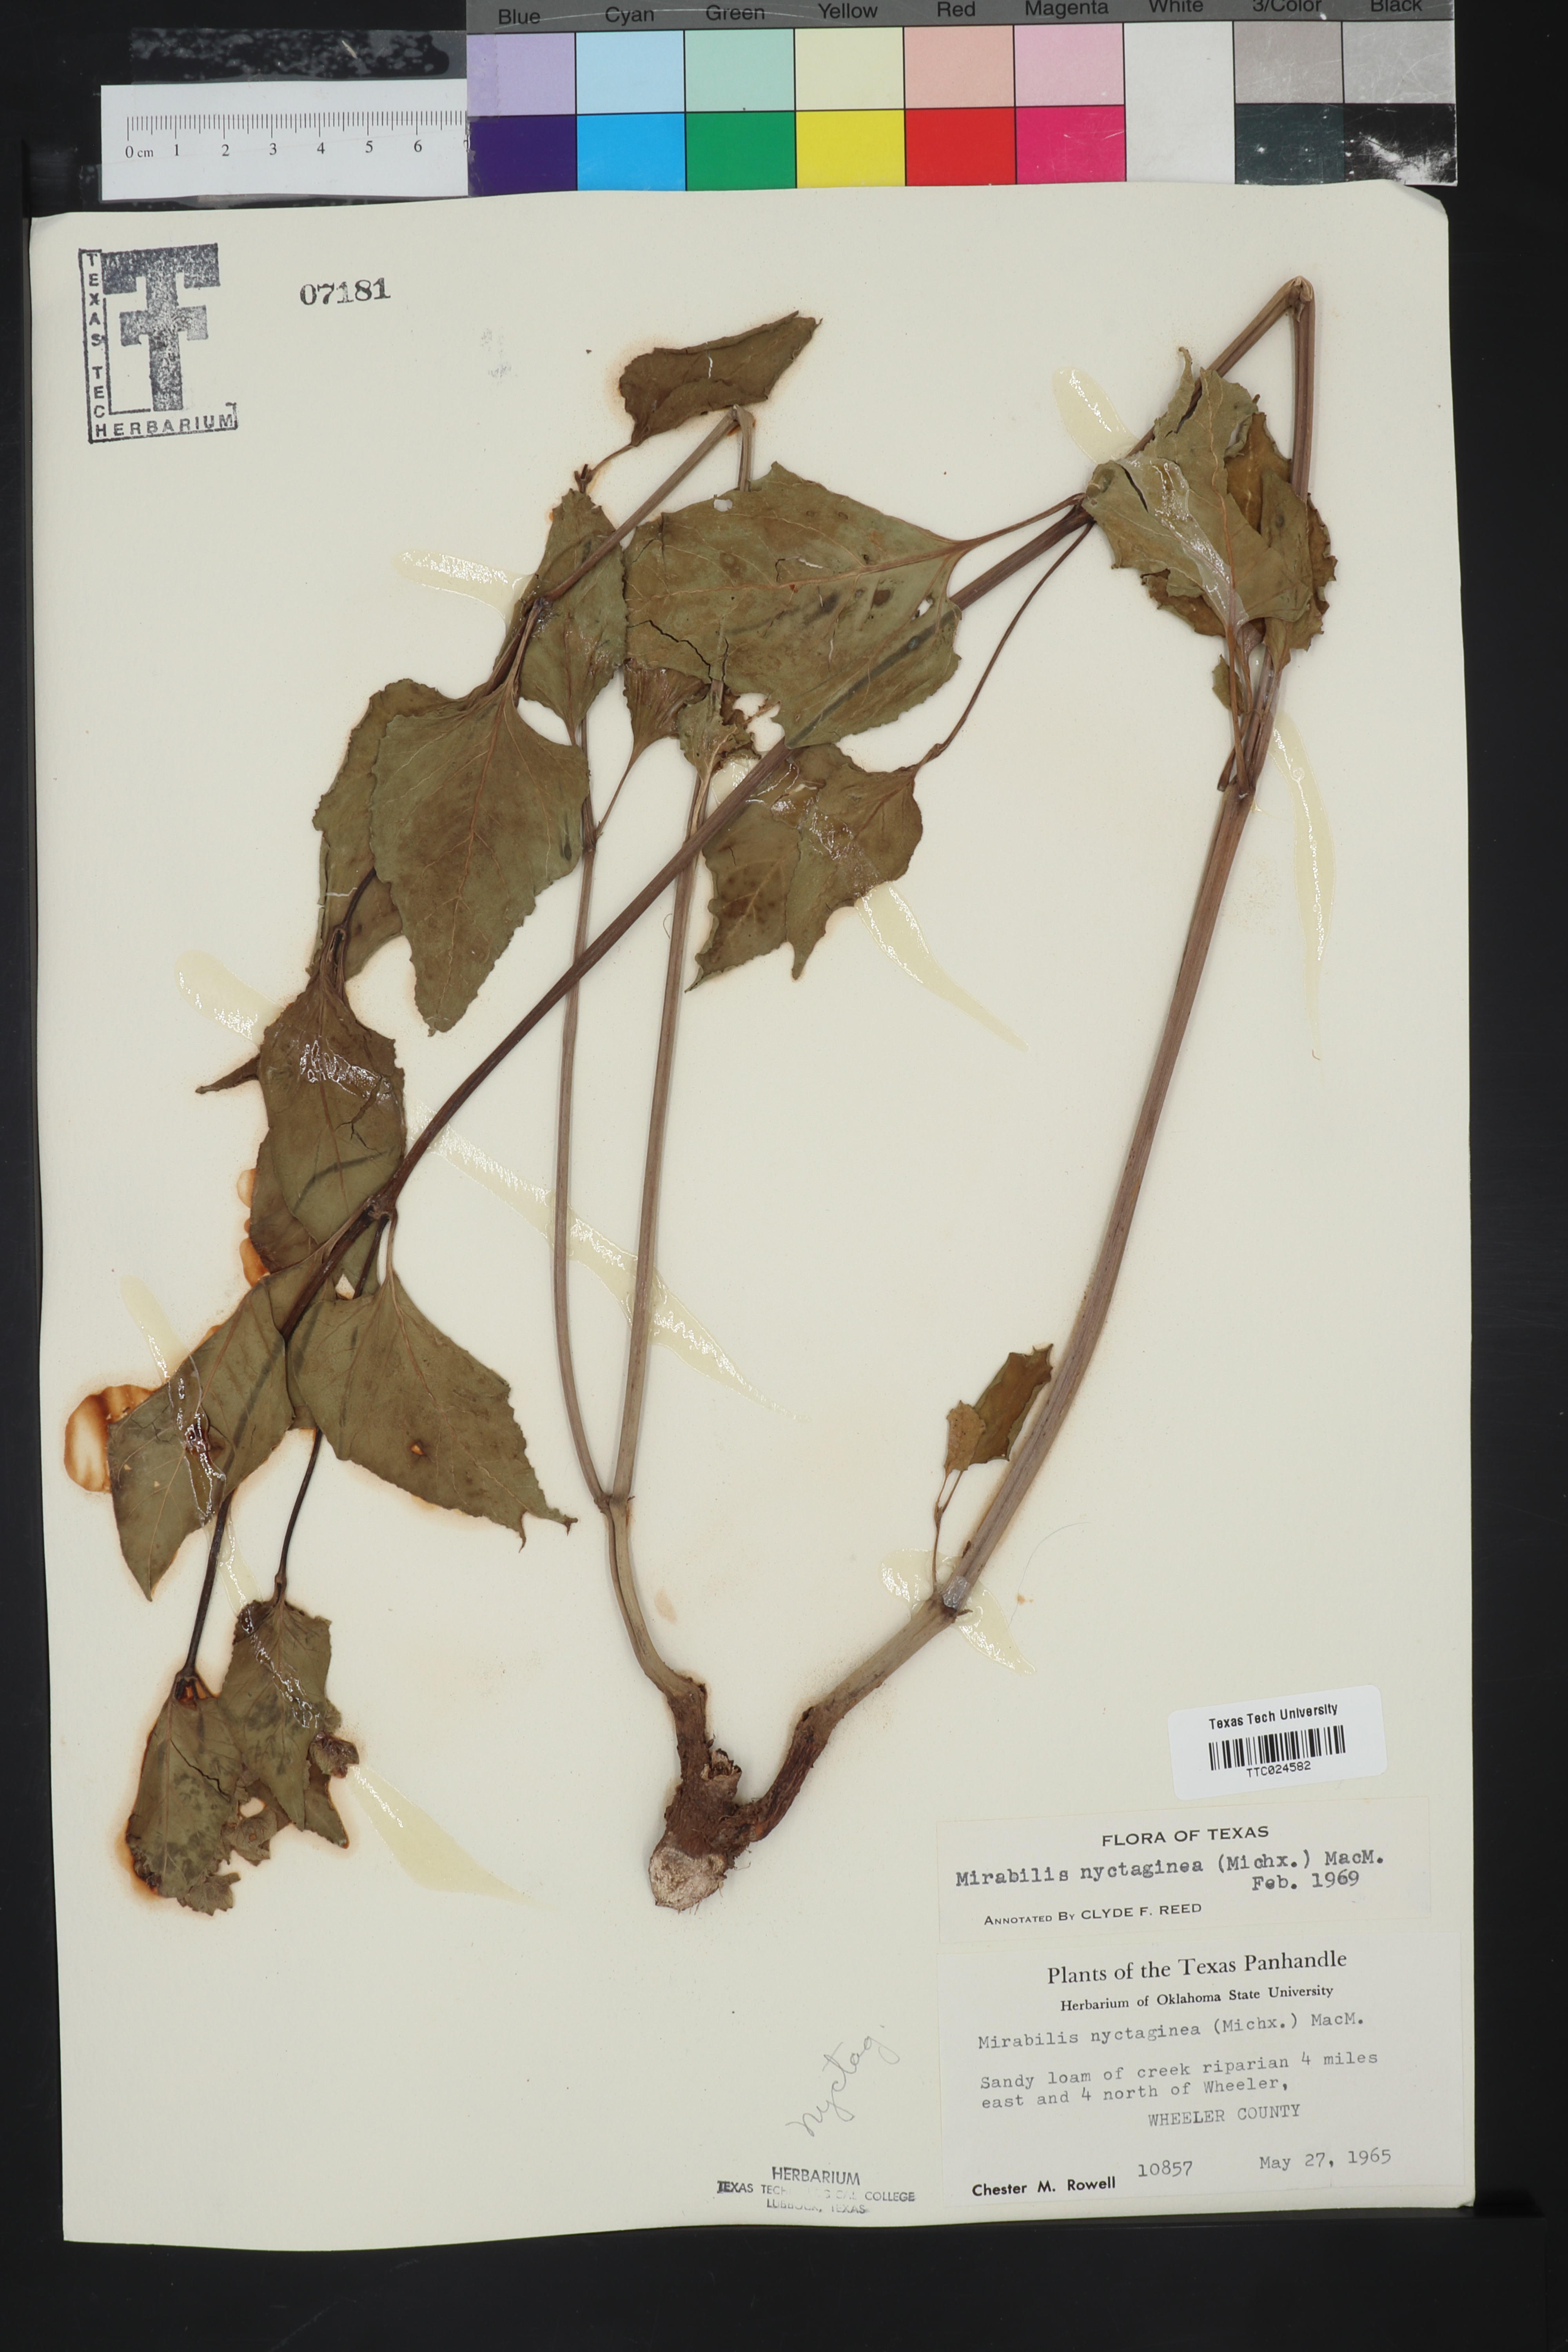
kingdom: Plantae
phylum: Tracheophyta
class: Magnoliopsida
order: Caryophyllales
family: Nyctaginaceae
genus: Mirabilis
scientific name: Mirabilis nyctaginea
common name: Umbrella wort
